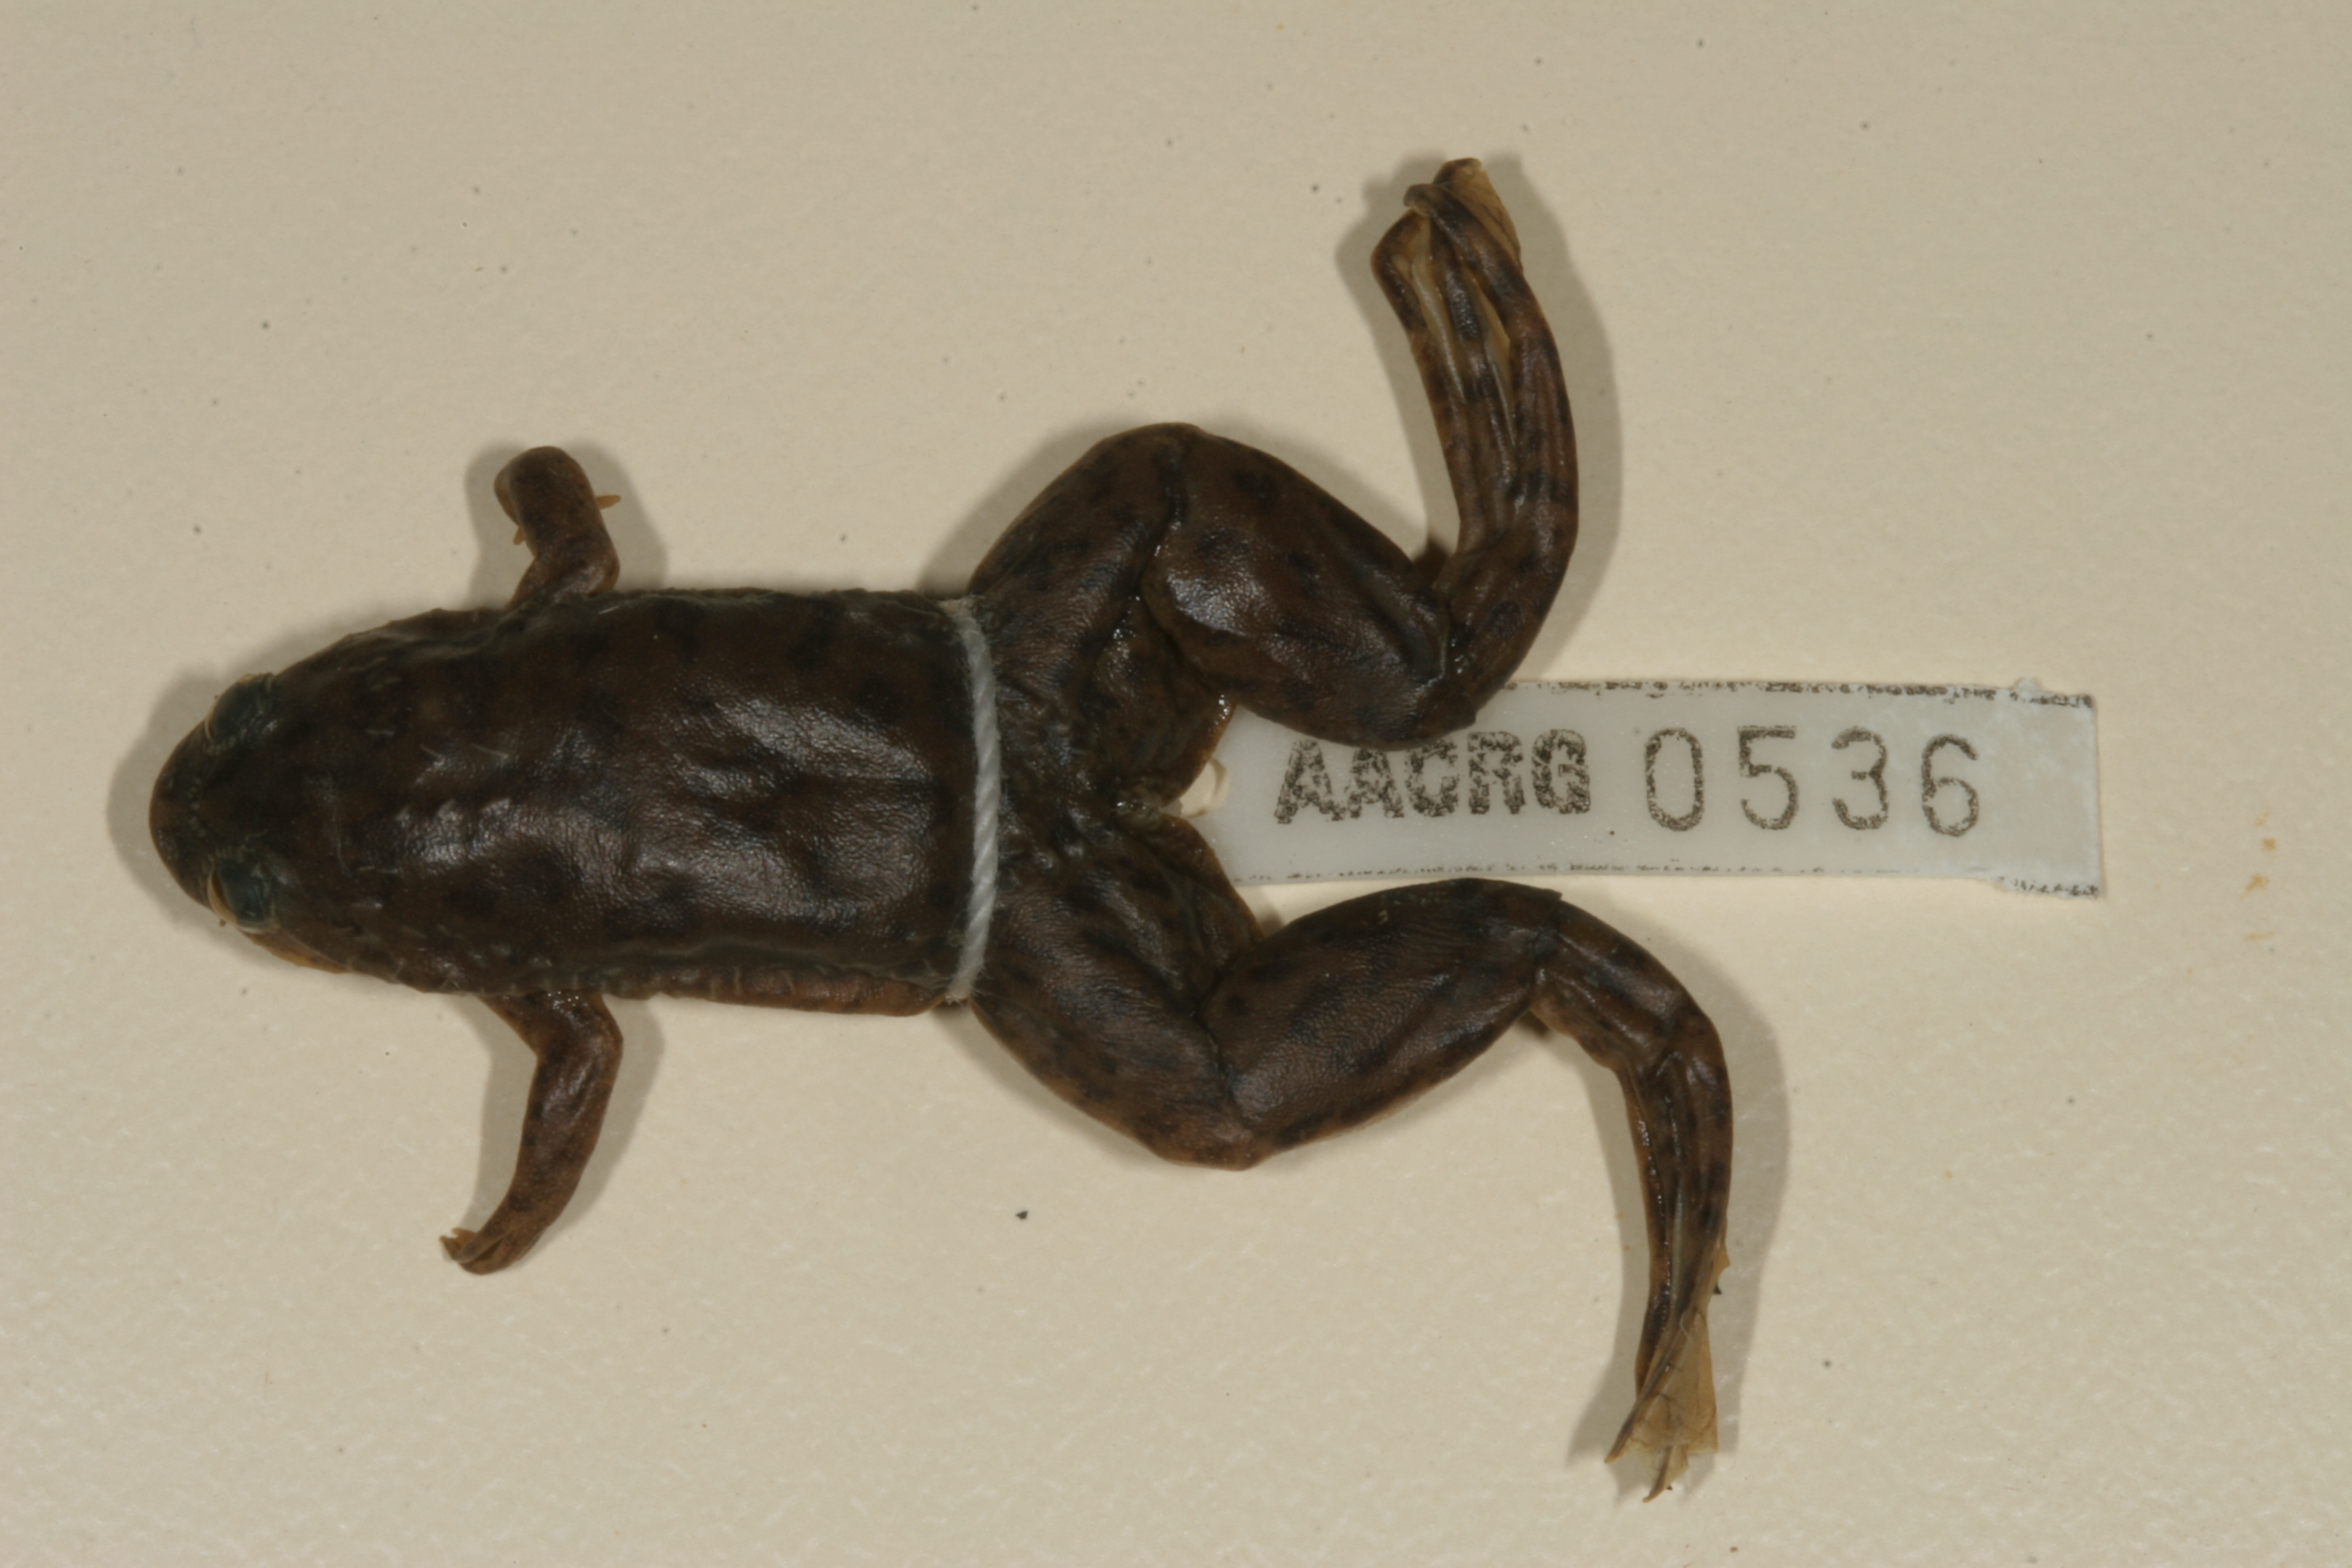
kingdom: Animalia
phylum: Chordata
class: Amphibia
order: Anura
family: Pipidae
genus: Xenopus
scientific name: Xenopus laevis
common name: African clawed frog
